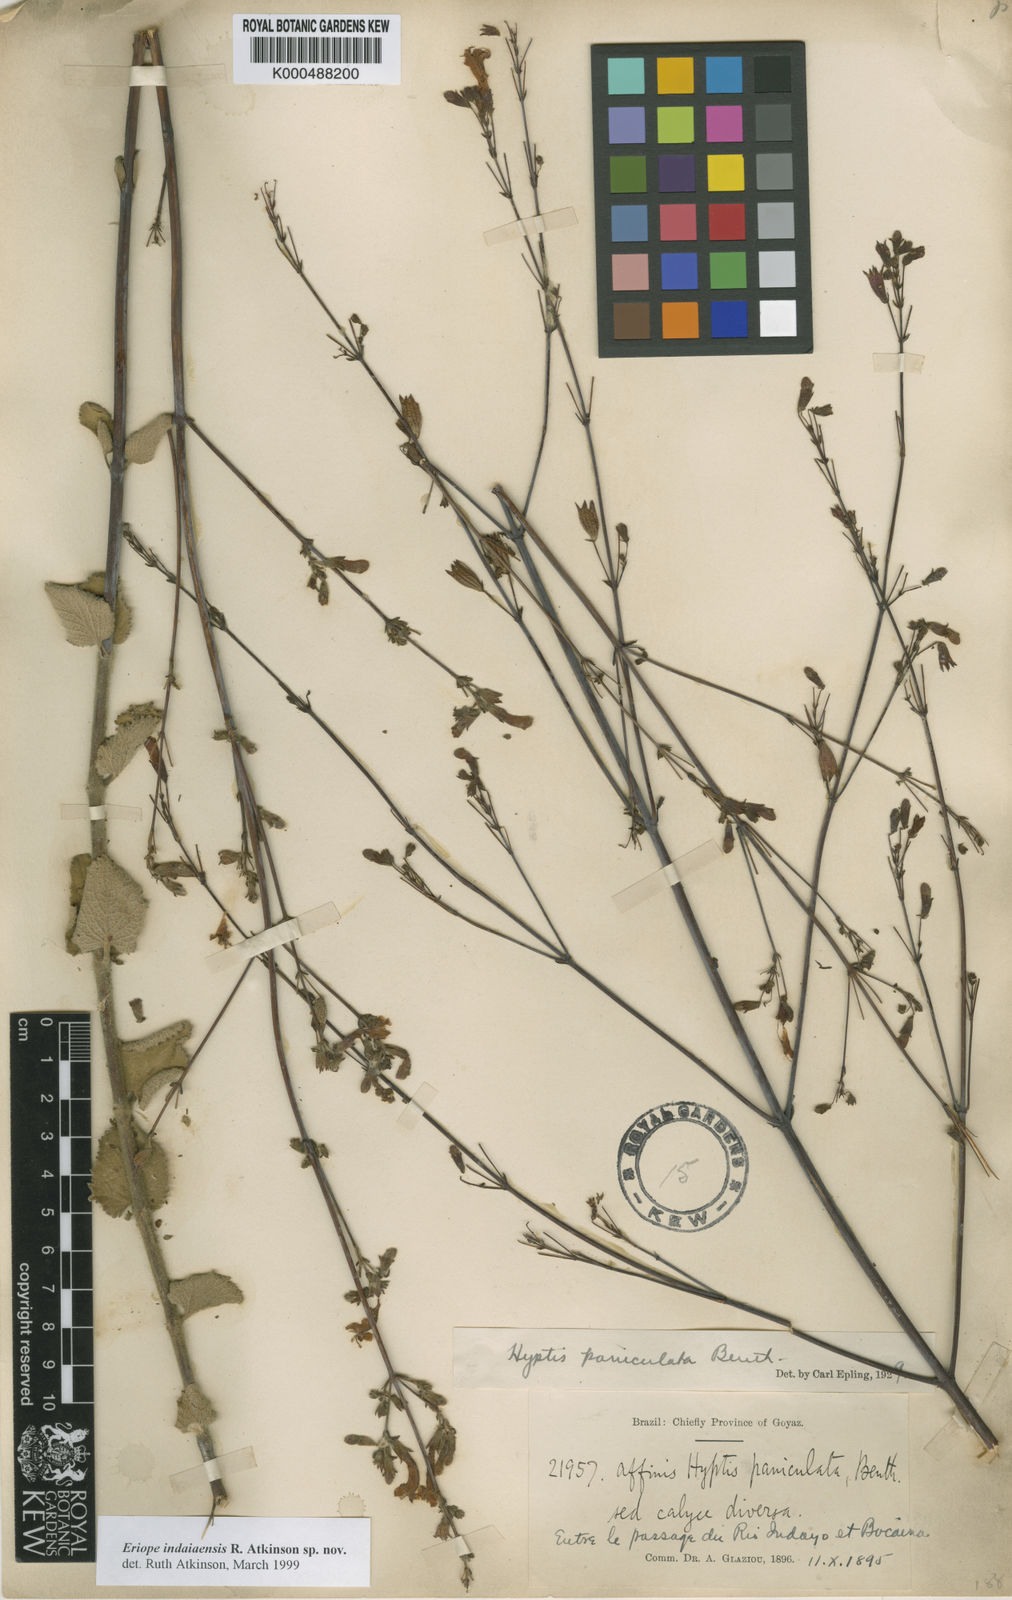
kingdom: Plantae
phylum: Tracheophyta
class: Magnoliopsida
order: Lamiales
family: Lamiaceae
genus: Hypenia
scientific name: Hypenia
